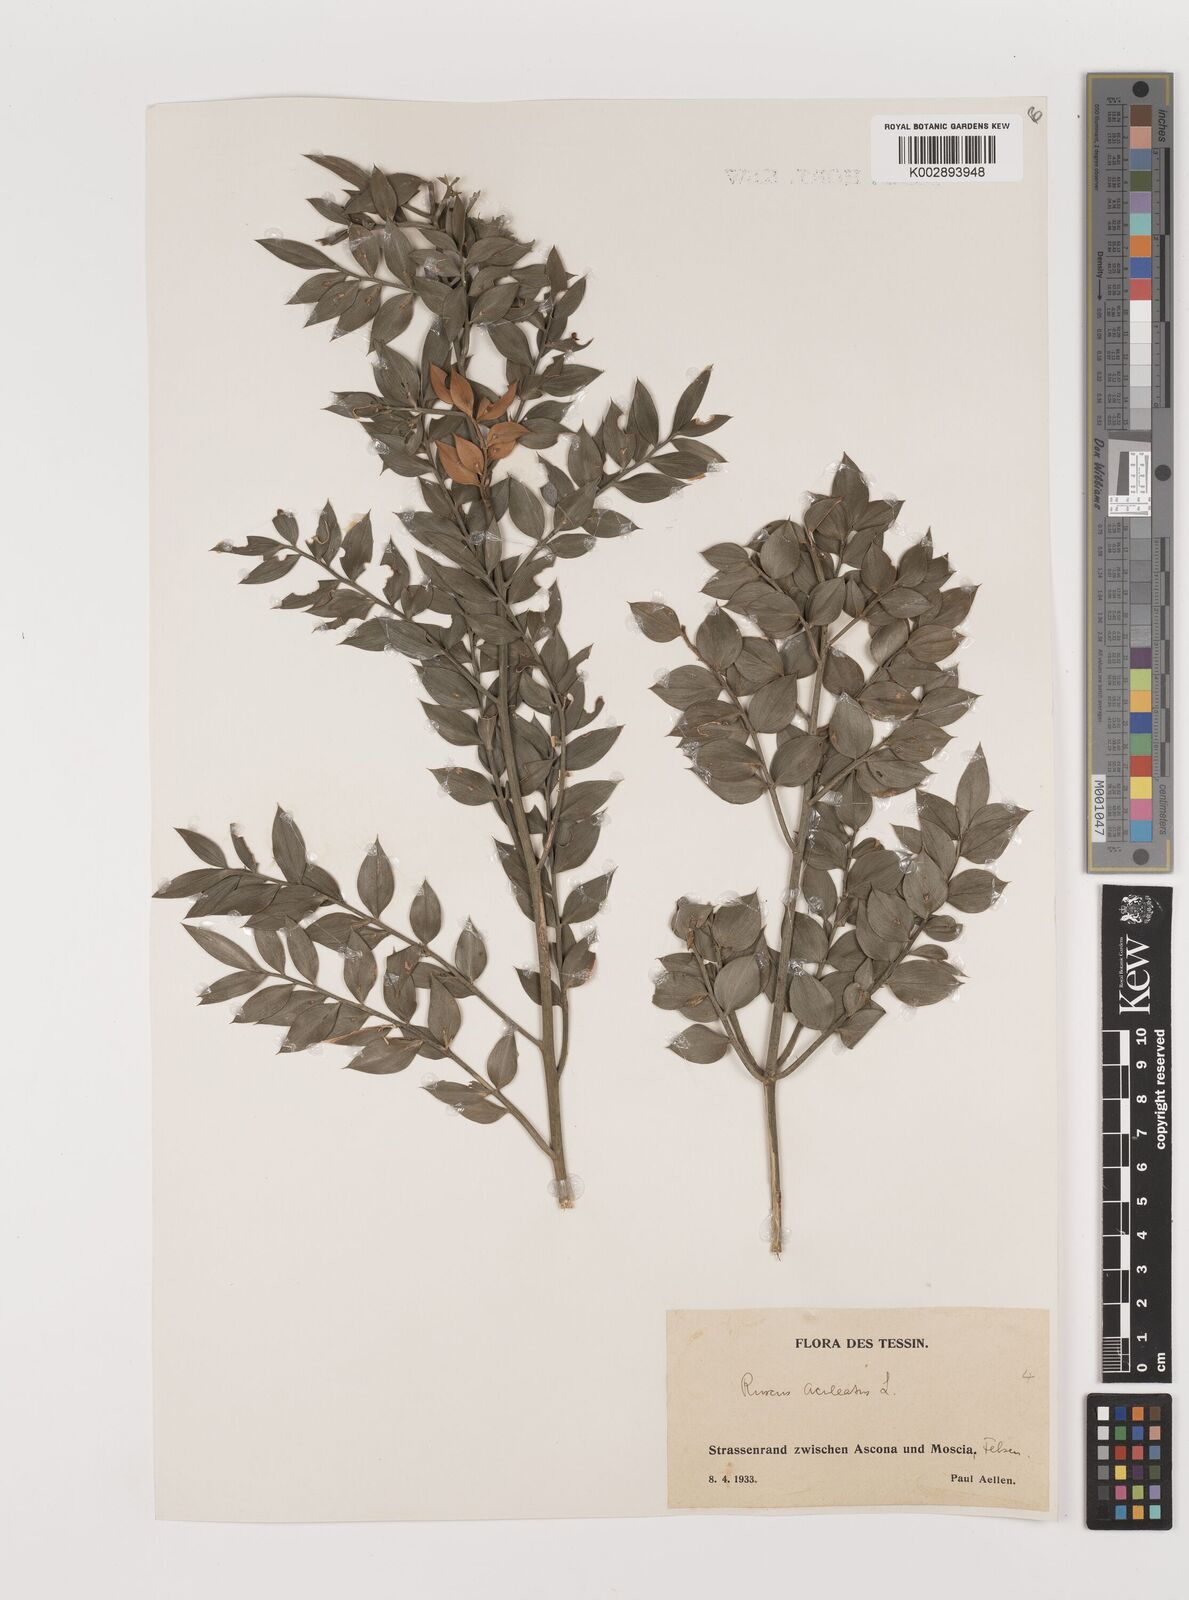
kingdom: Plantae
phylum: Tracheophyta
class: Liliopsida
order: Asparagales
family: Asparagaceae
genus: Ruscus
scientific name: Ruscus aculeatus
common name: Butcher's-broom
